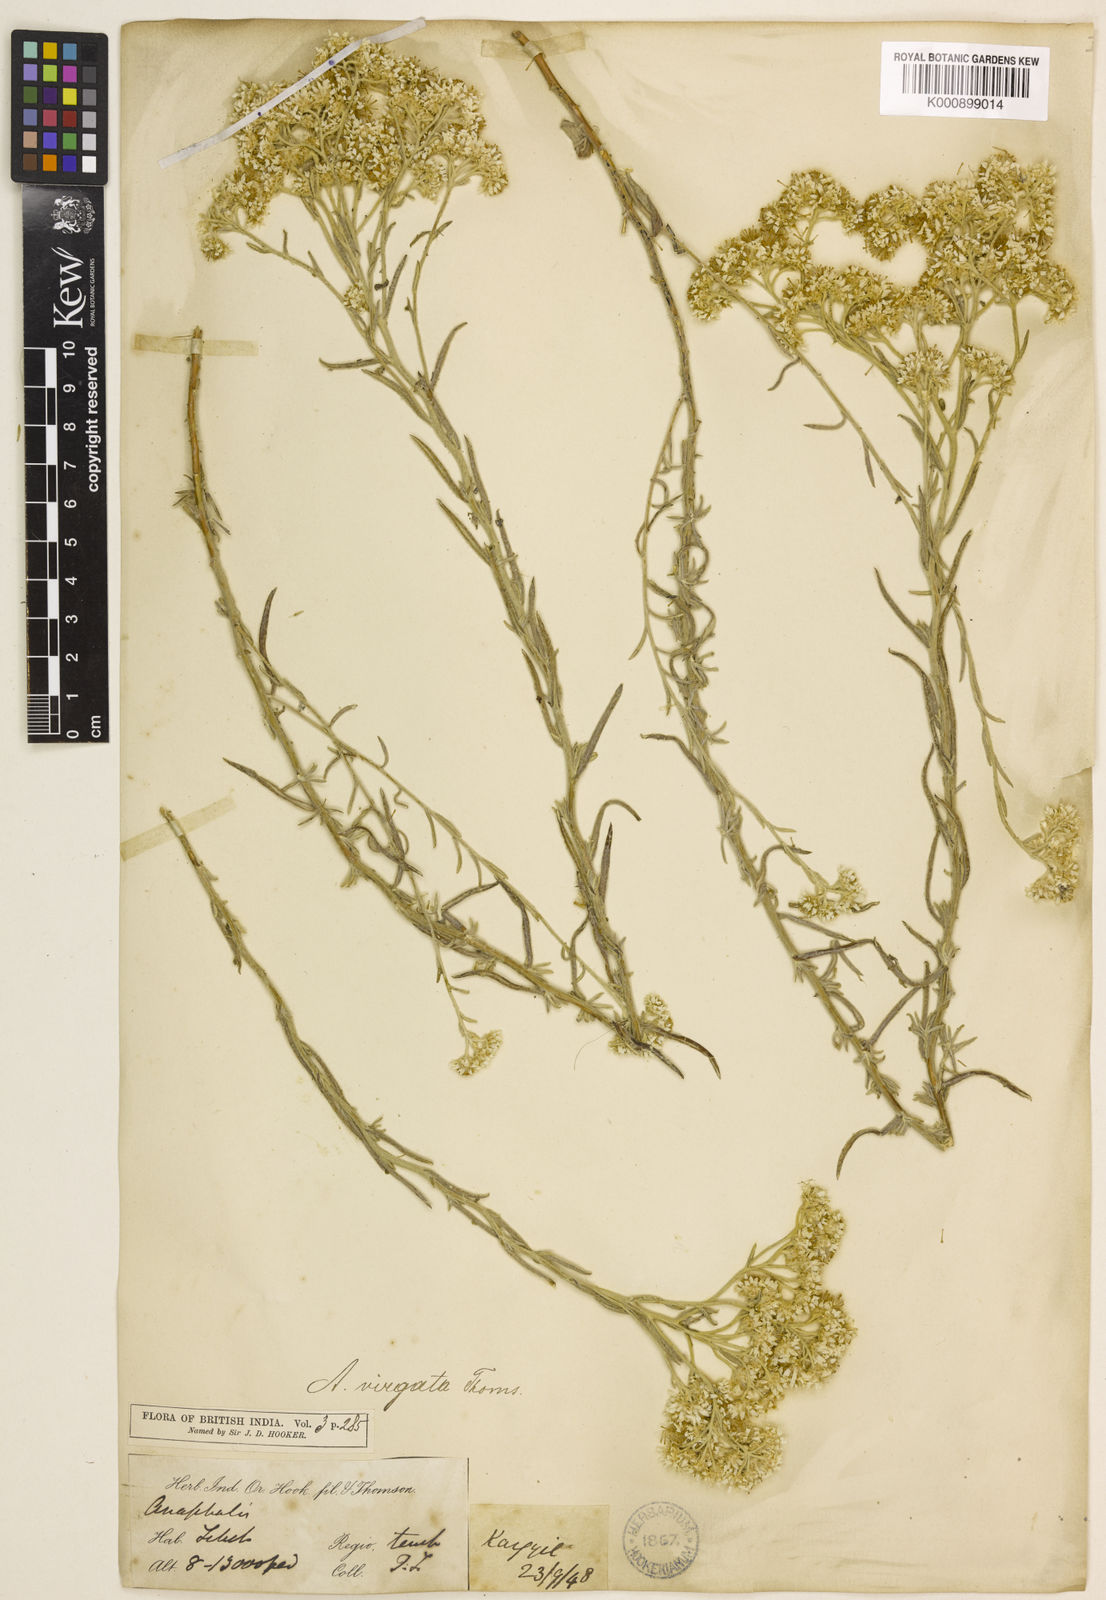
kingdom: Plantae
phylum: Tracheophyta
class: Magnoliopsida
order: Asterales
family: Asteraceae
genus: Anaphalis
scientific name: Anaphalis virgata
